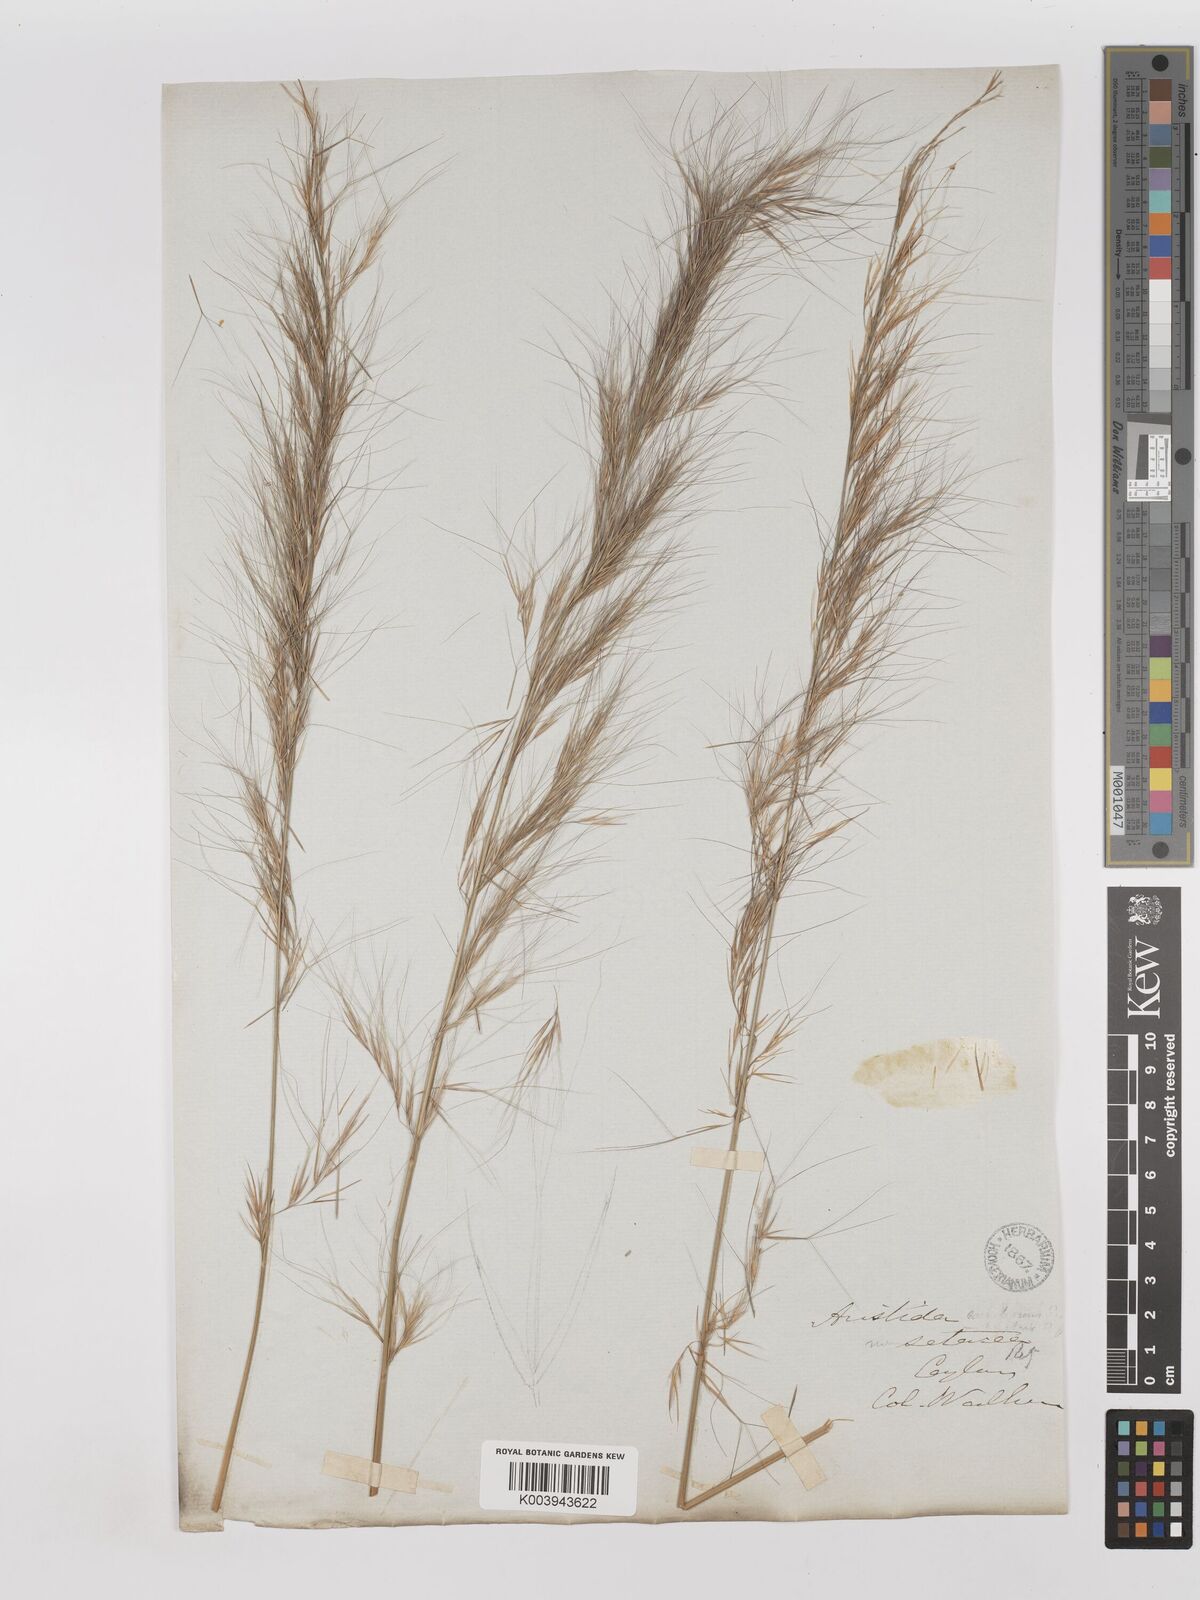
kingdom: Plantae
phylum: Tracheophyta
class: Liliopsida
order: Poales
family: Poaceae
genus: Aristida
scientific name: Aristida setacea
